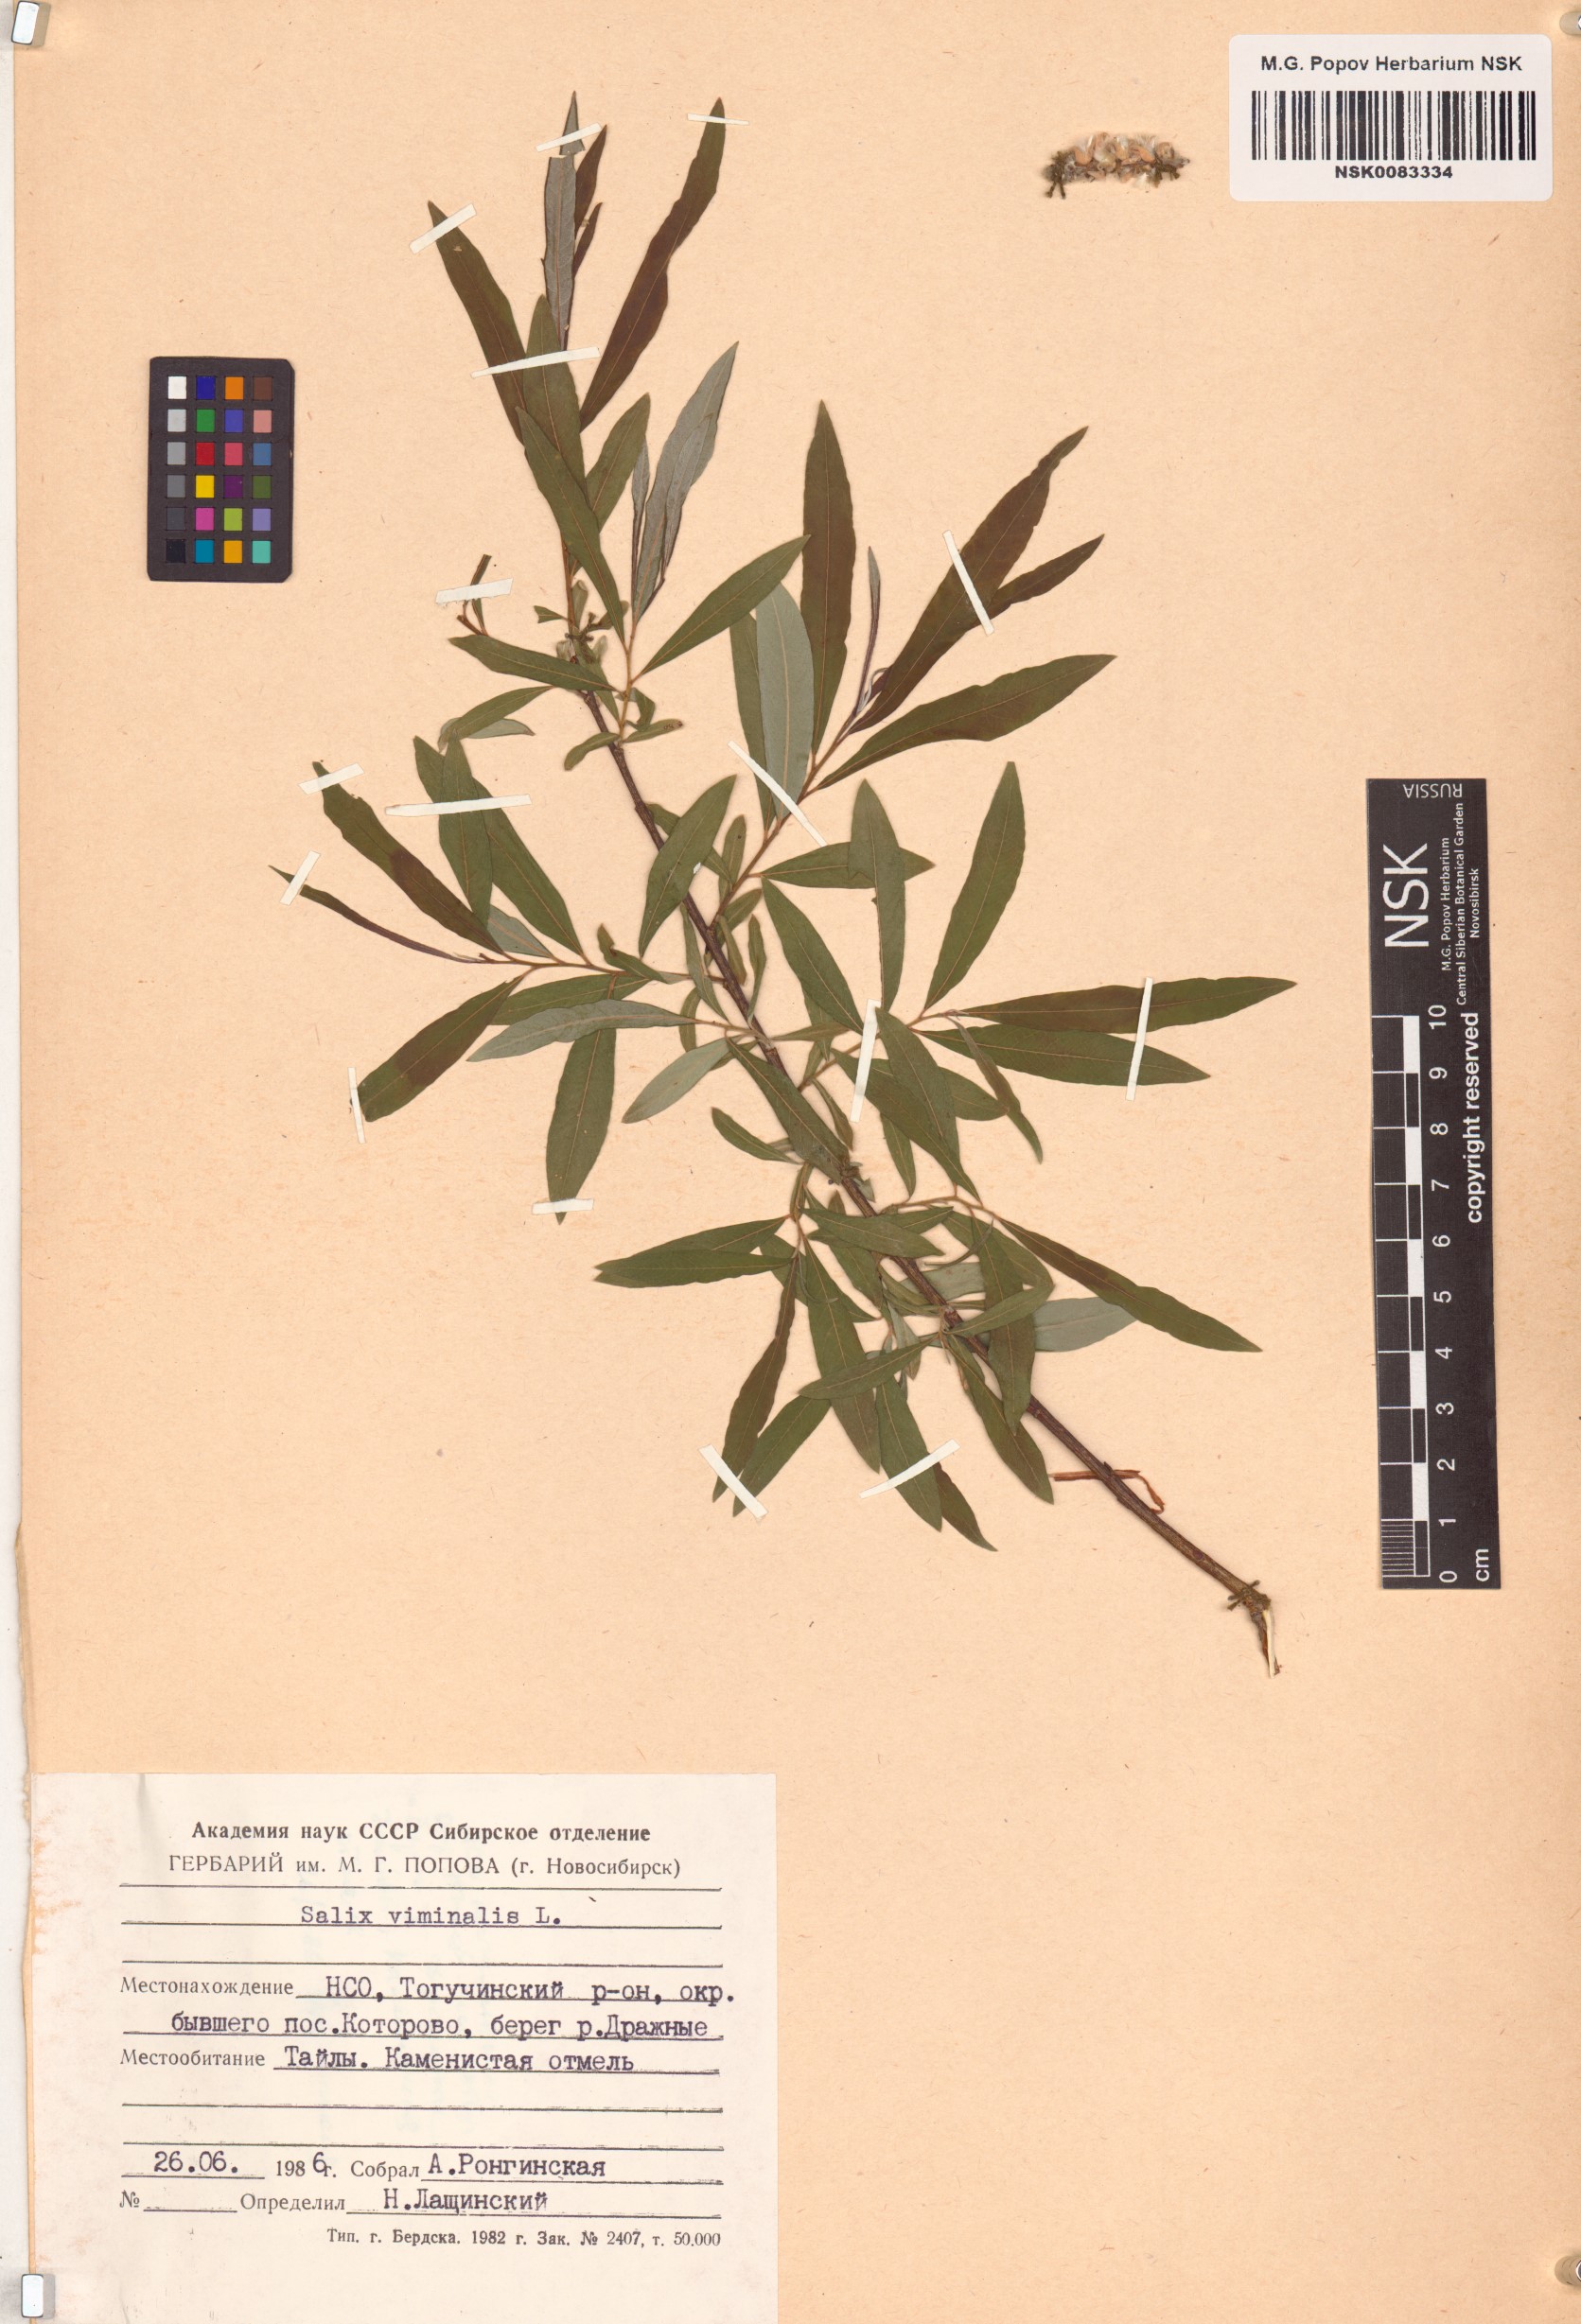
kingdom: Plantae
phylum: Tracheophyta
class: Magnoliopsida
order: Malpighiales
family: Salicaceae
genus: Salix
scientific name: Salix viminalis
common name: Osier
